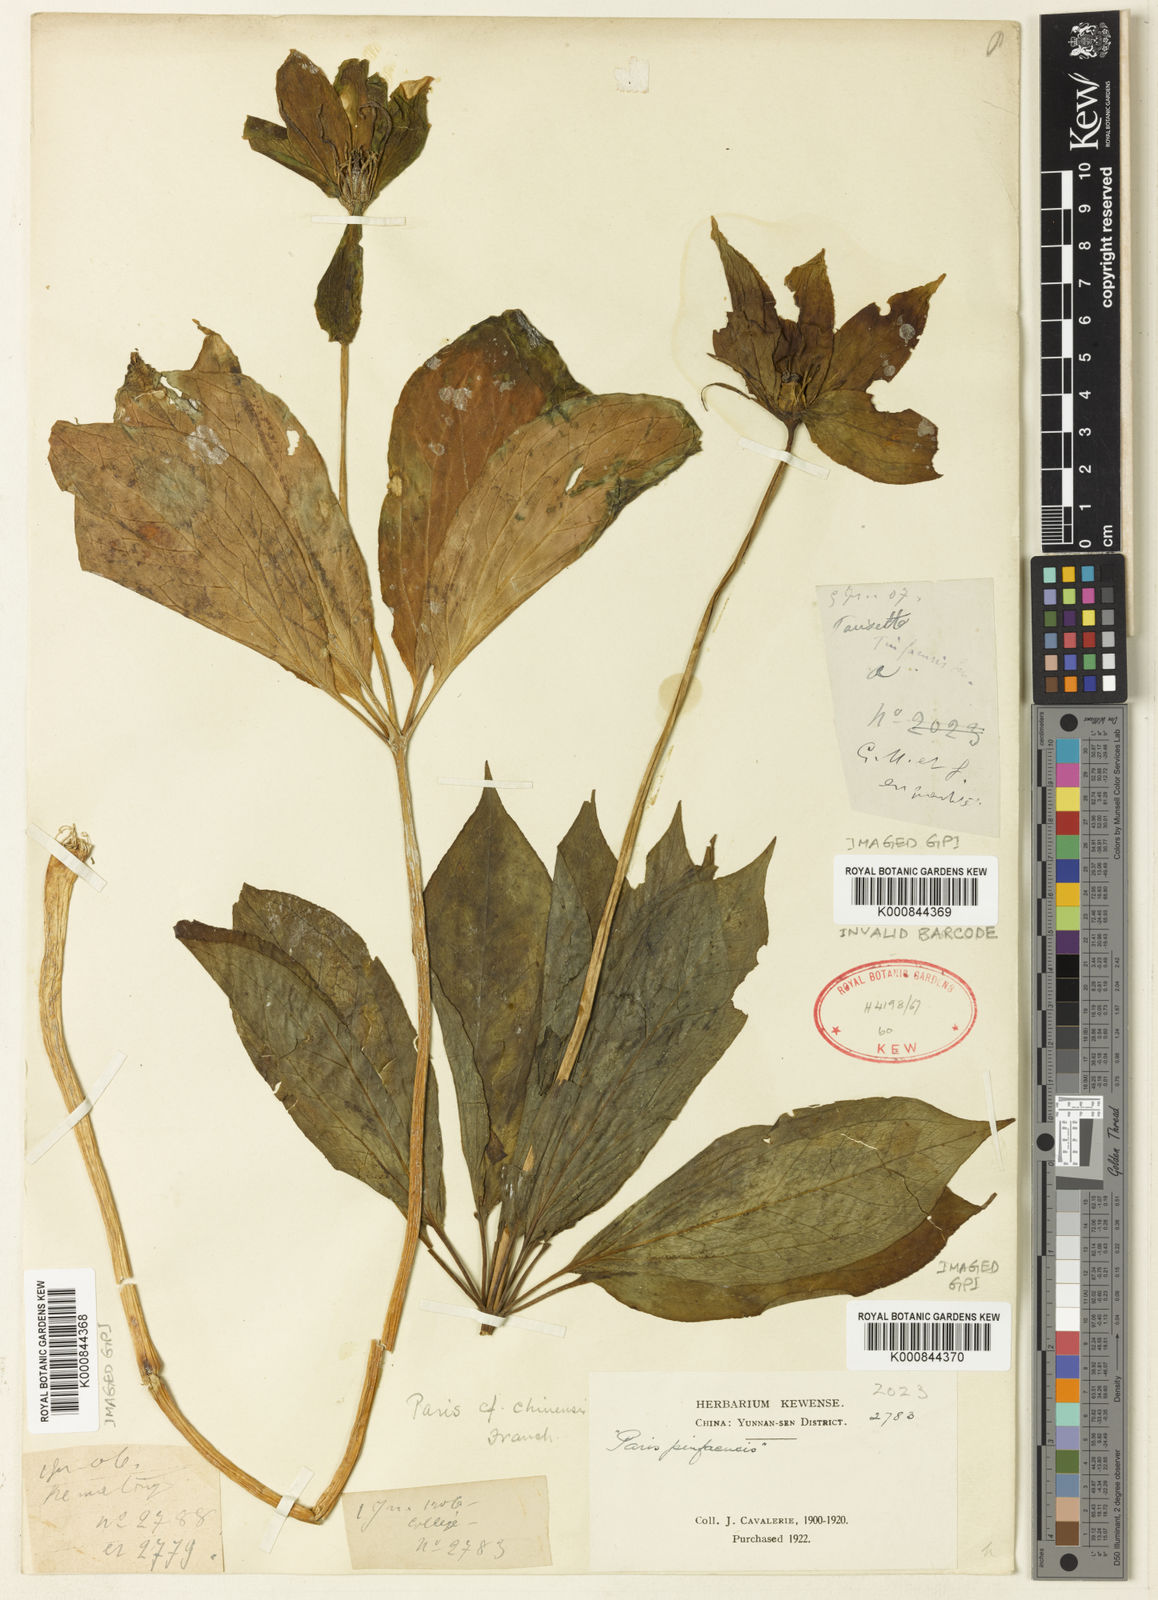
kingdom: Plantae
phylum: Tracheophyta
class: Liliopsida
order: Liliales
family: Melanthiaceae
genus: Paris
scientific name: Paris chinensis
